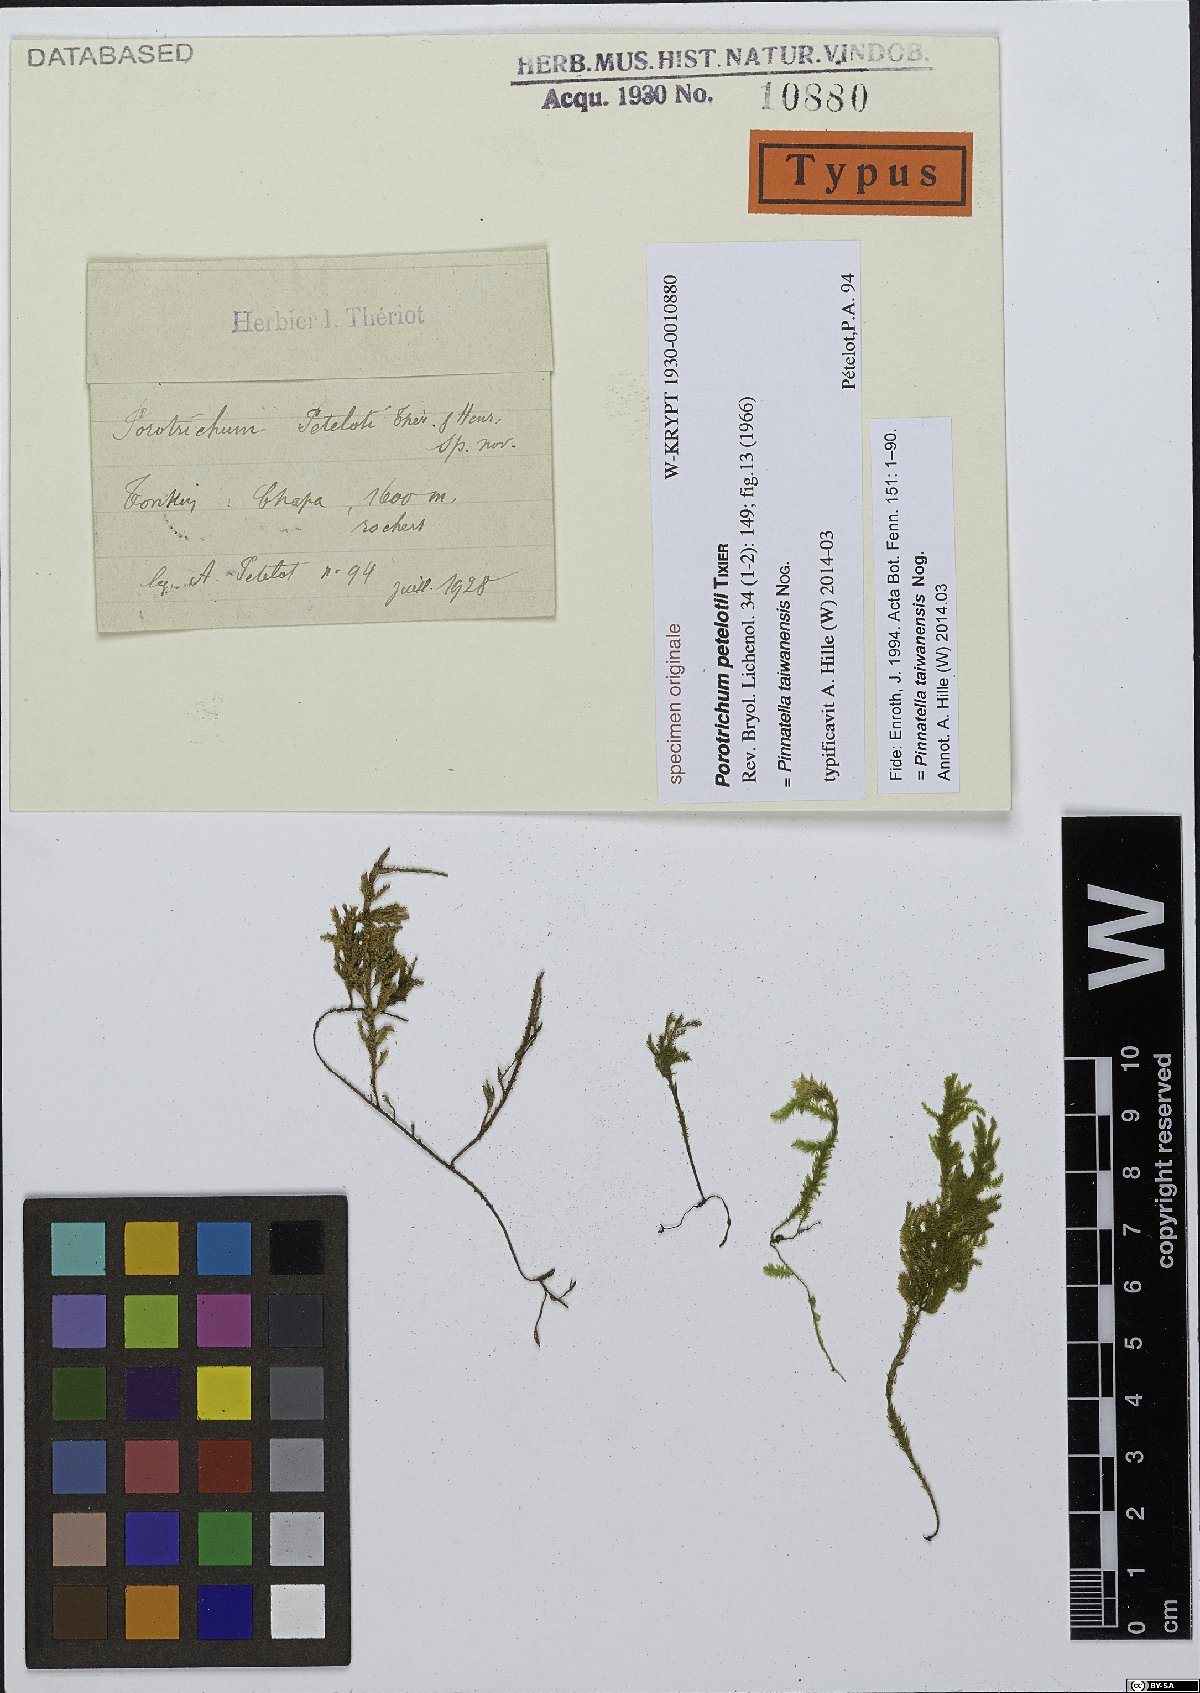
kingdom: Plantae
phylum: Bryophyta
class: Bryopsida
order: Hypnales
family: Neckeraceae
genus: Pinnatella
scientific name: Pinnatella taiwanensis
